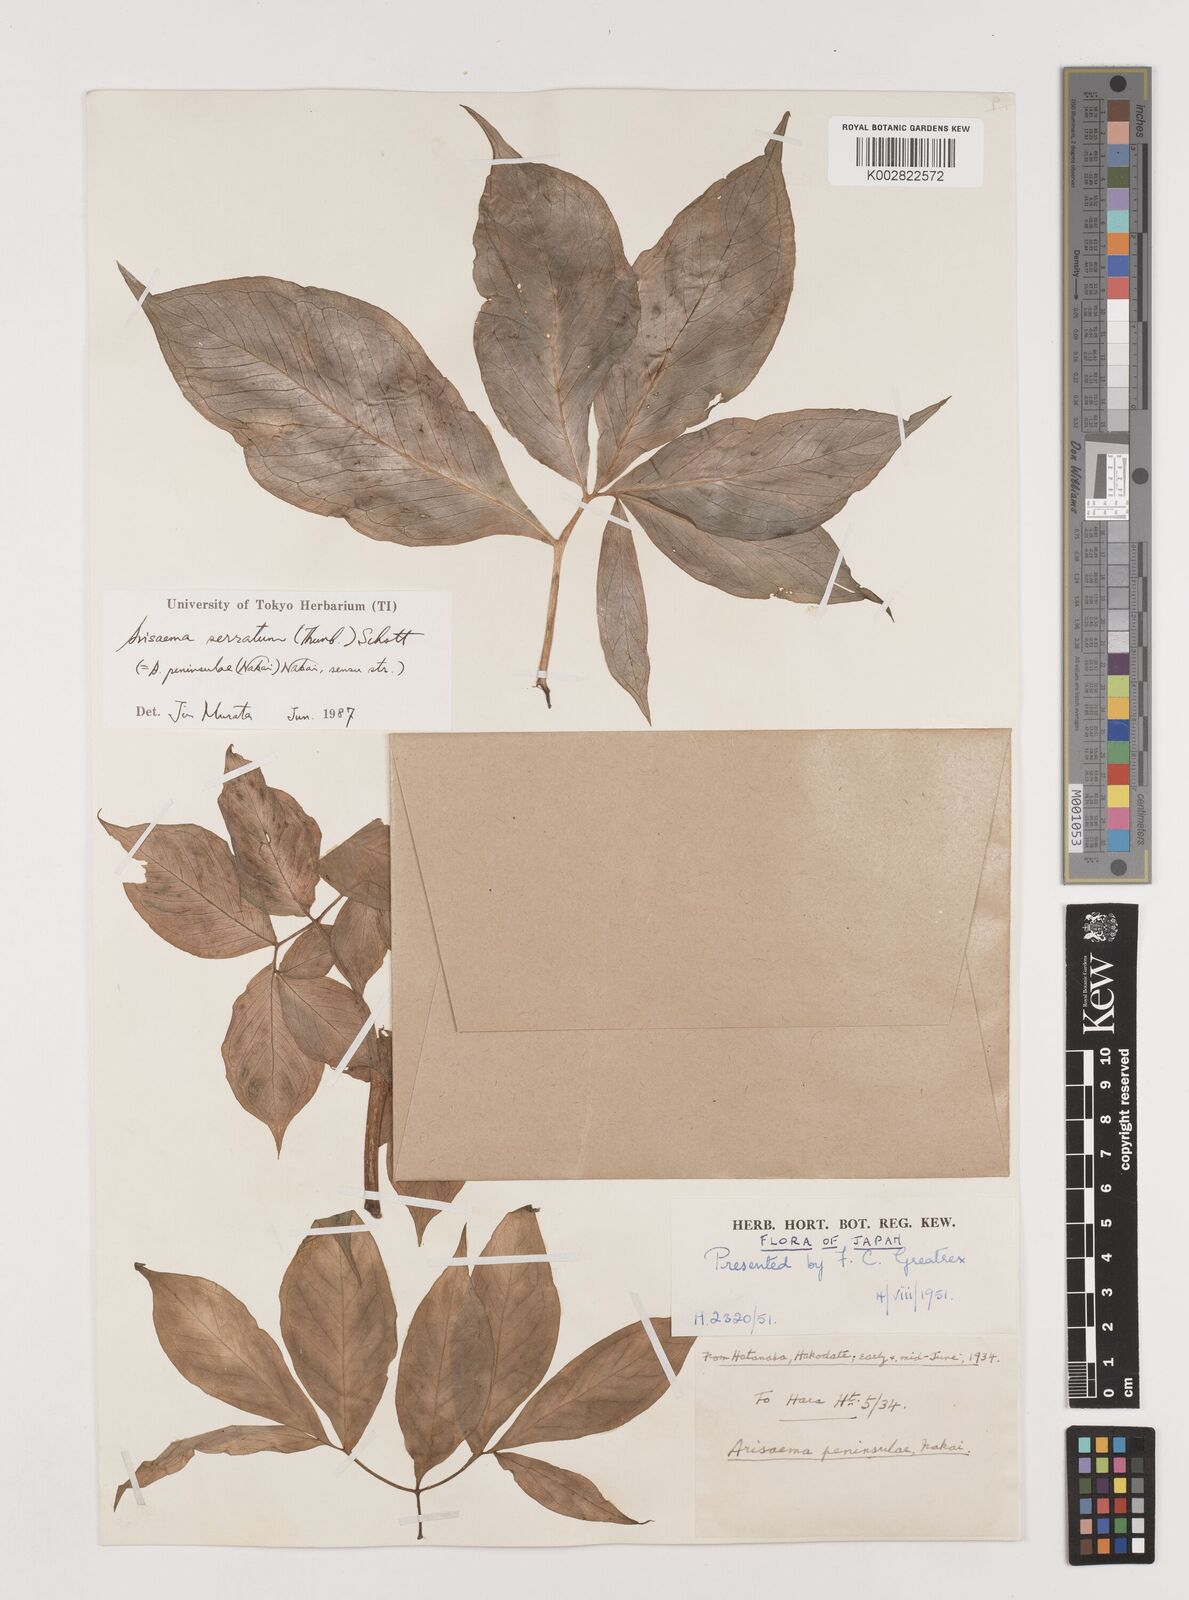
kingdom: Plantae
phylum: Tracheophyta
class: Liliopsida
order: Alismatales
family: Araceae
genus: Arisaema
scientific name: Arisaema serratum
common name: Japanese arisaema
